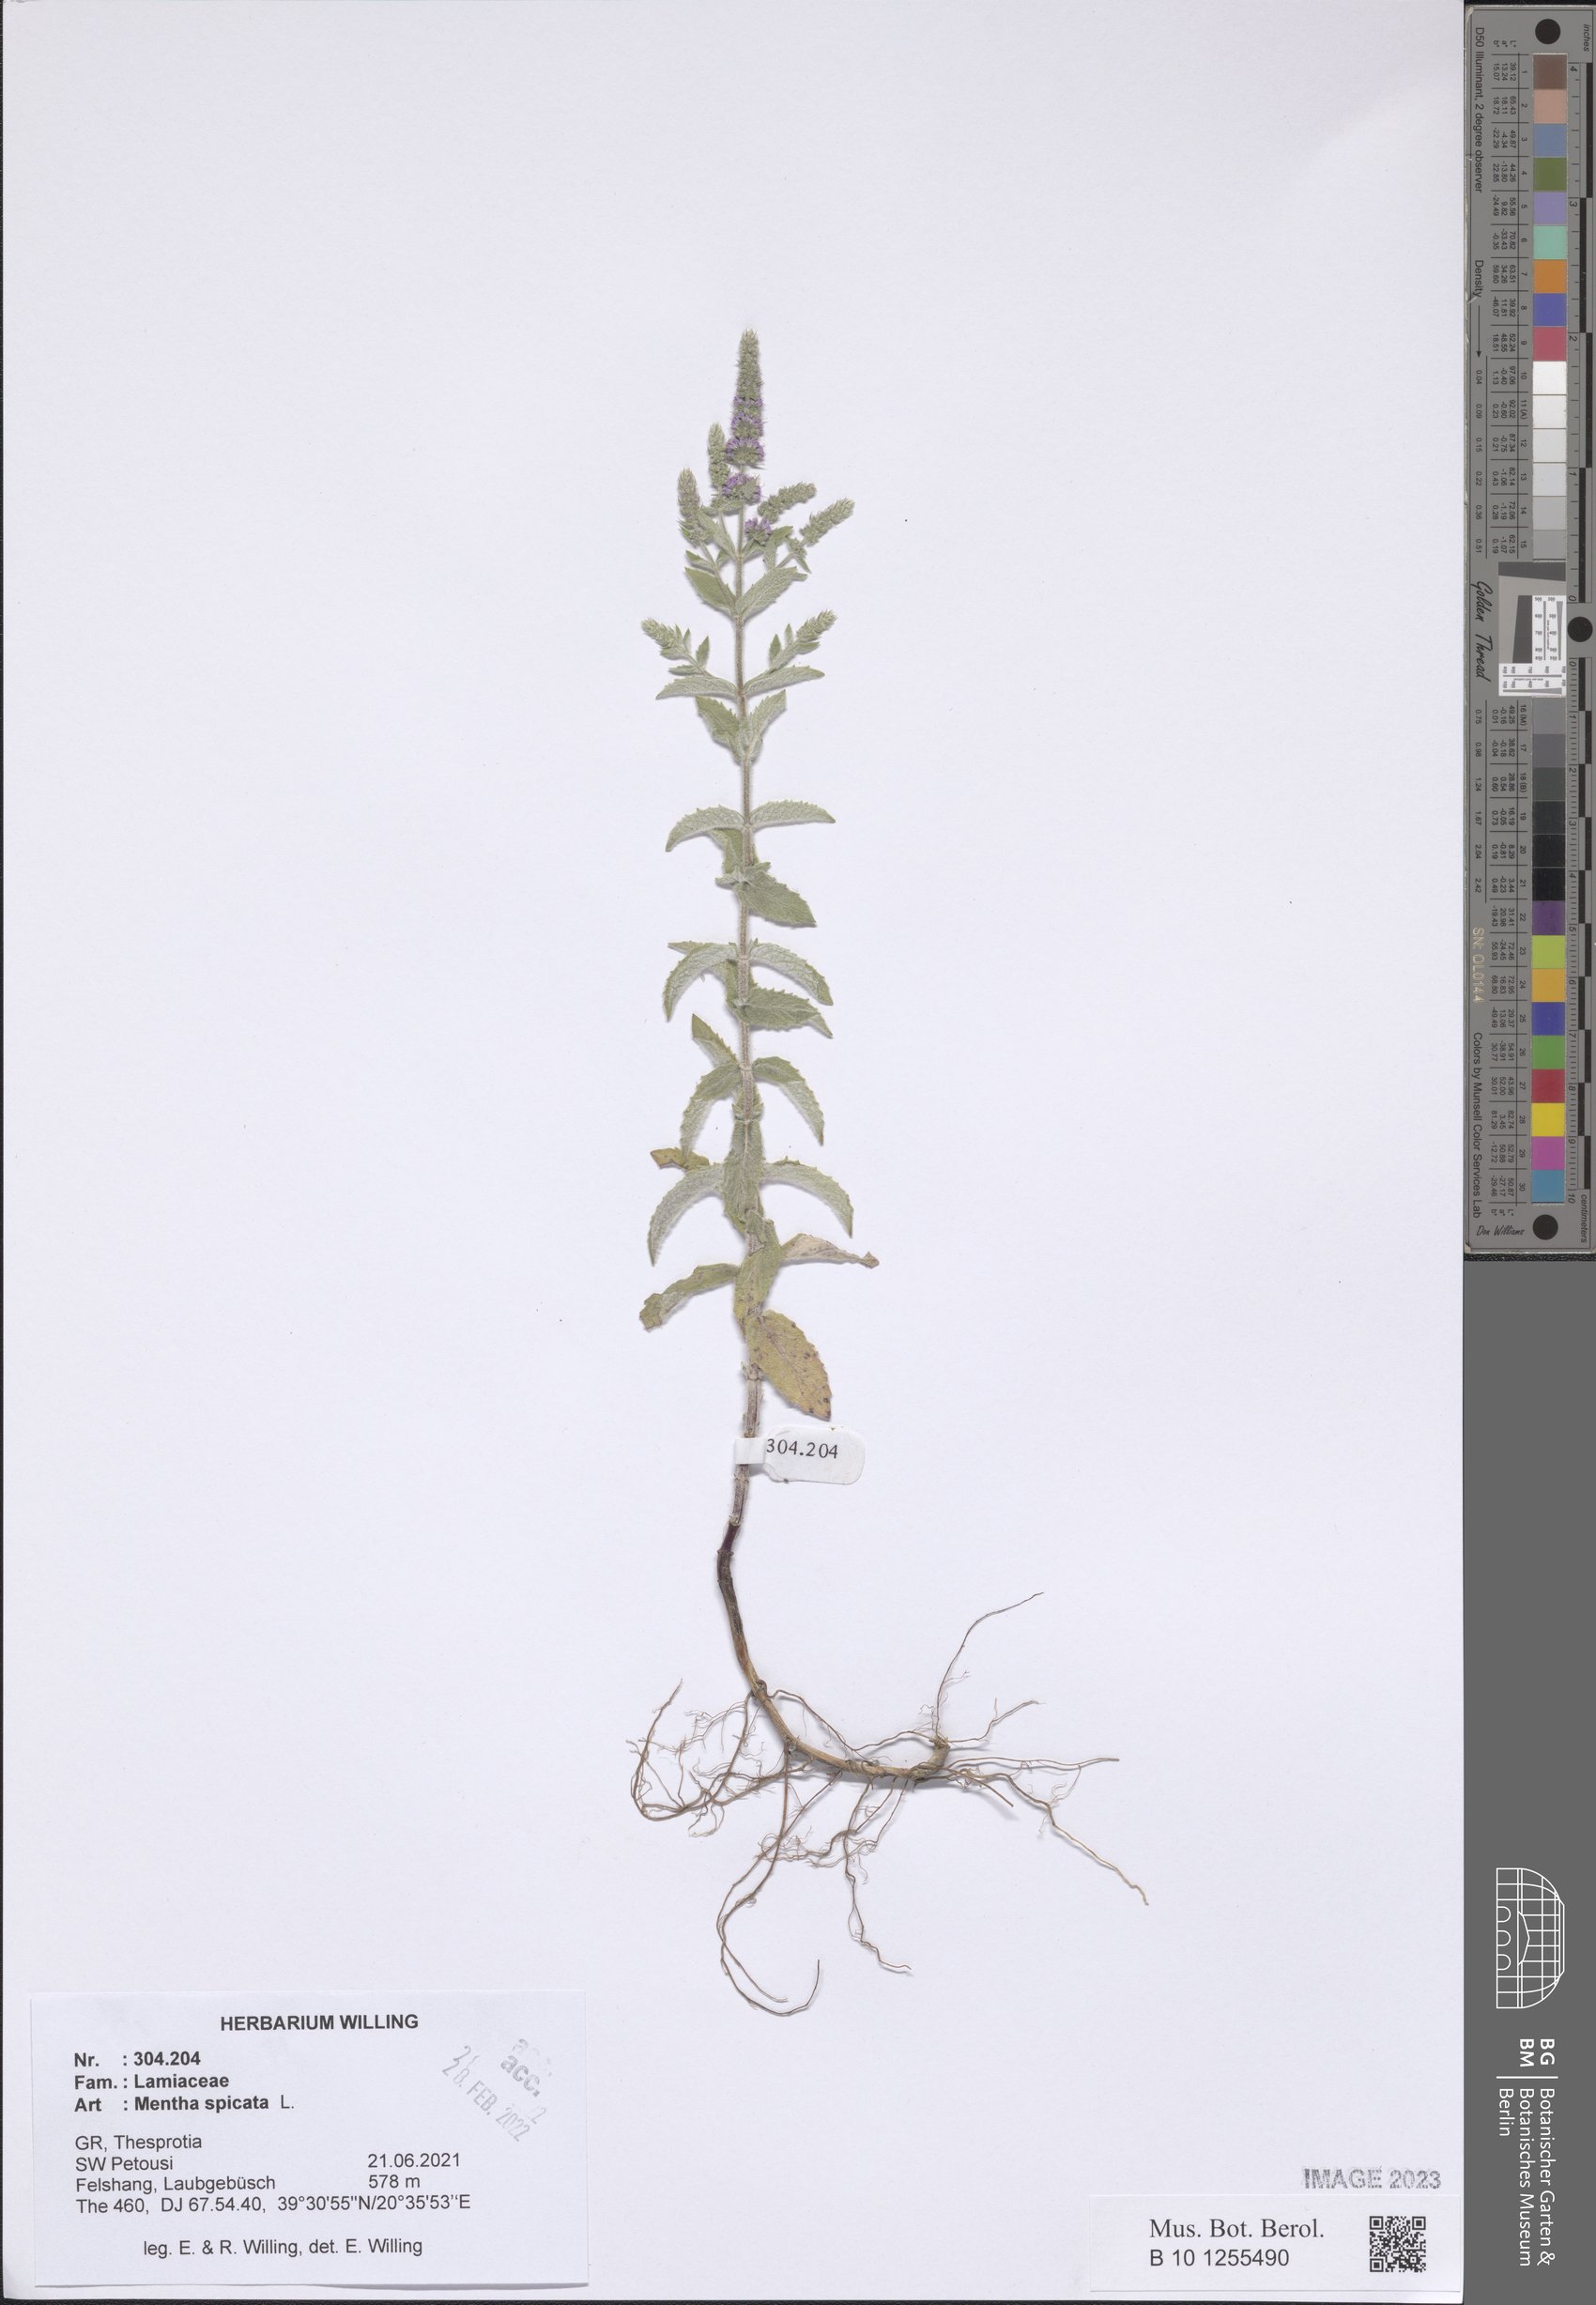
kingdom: Plantae
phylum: Tracheophyta
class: Magnoliopsida
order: Lamiales
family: Lamiaceae
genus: Mentha
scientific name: Mentha spicata
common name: Spearmint
